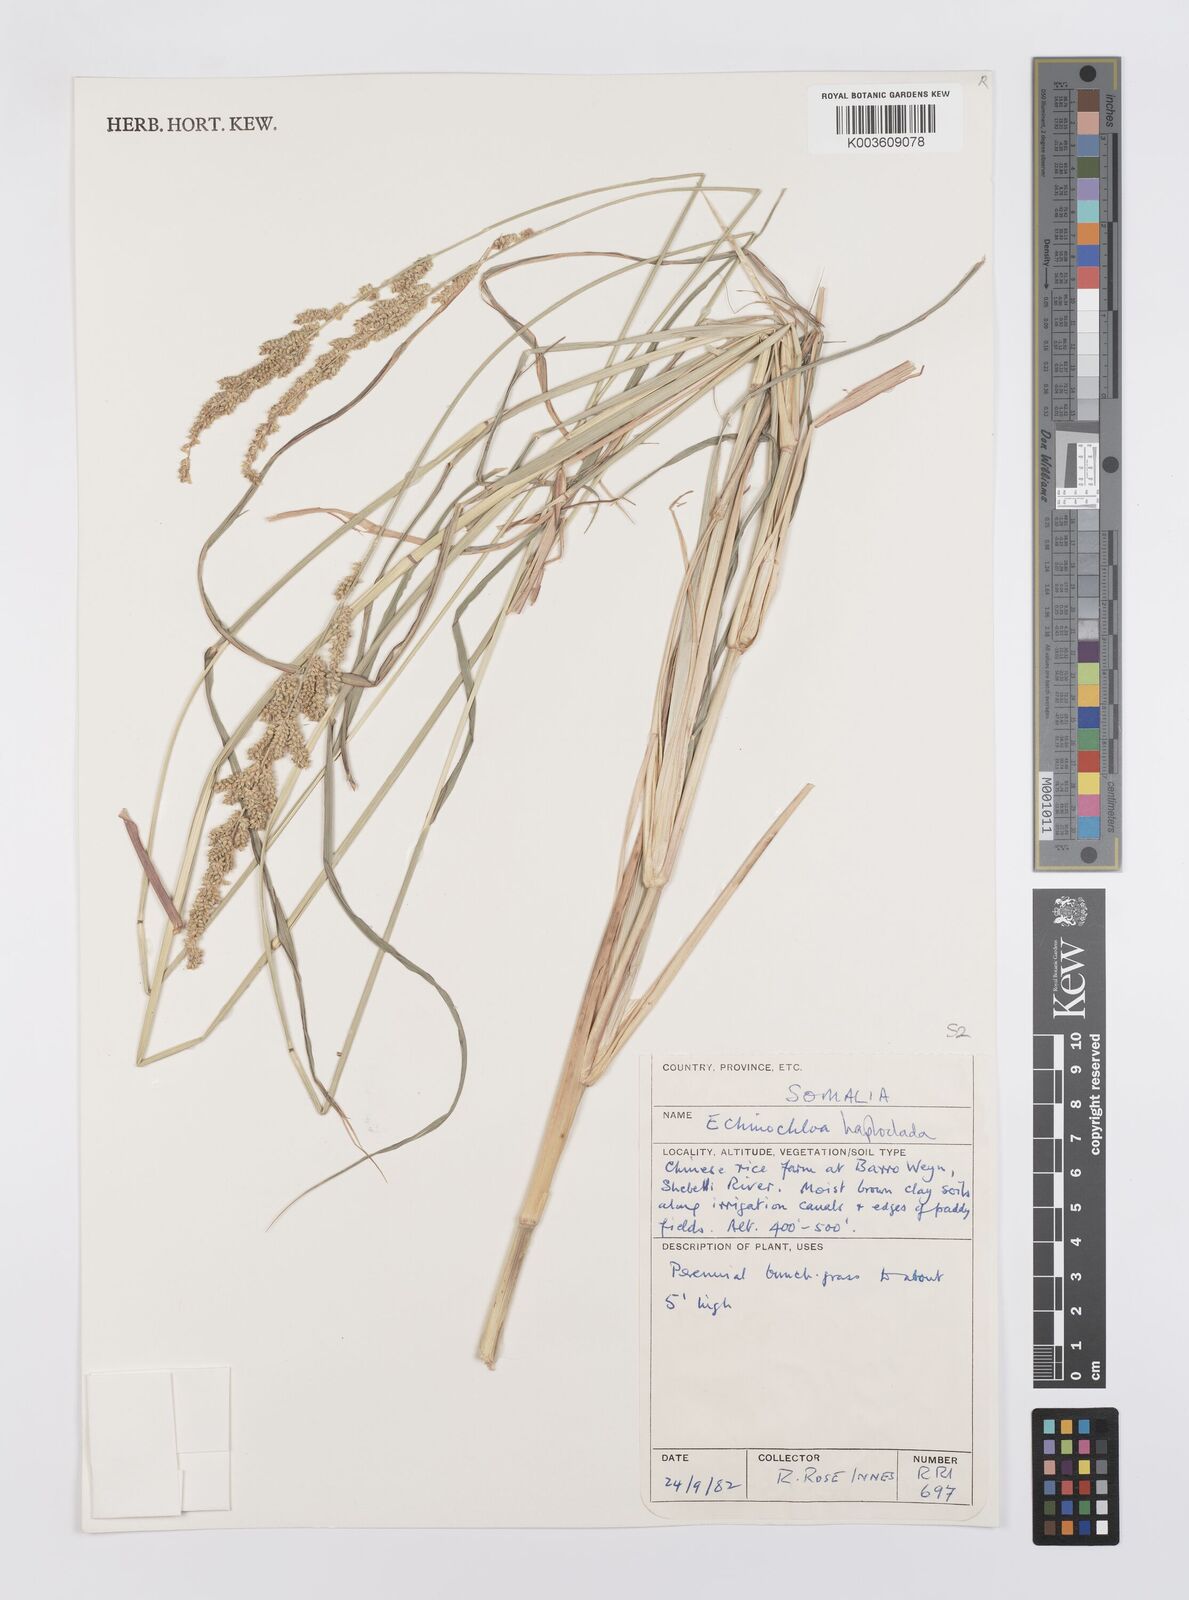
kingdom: Plantae
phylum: Tracheophyta
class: Liliopsida
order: Poales
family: Poaceae
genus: Echinochloa
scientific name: Echinochloa haploclada
